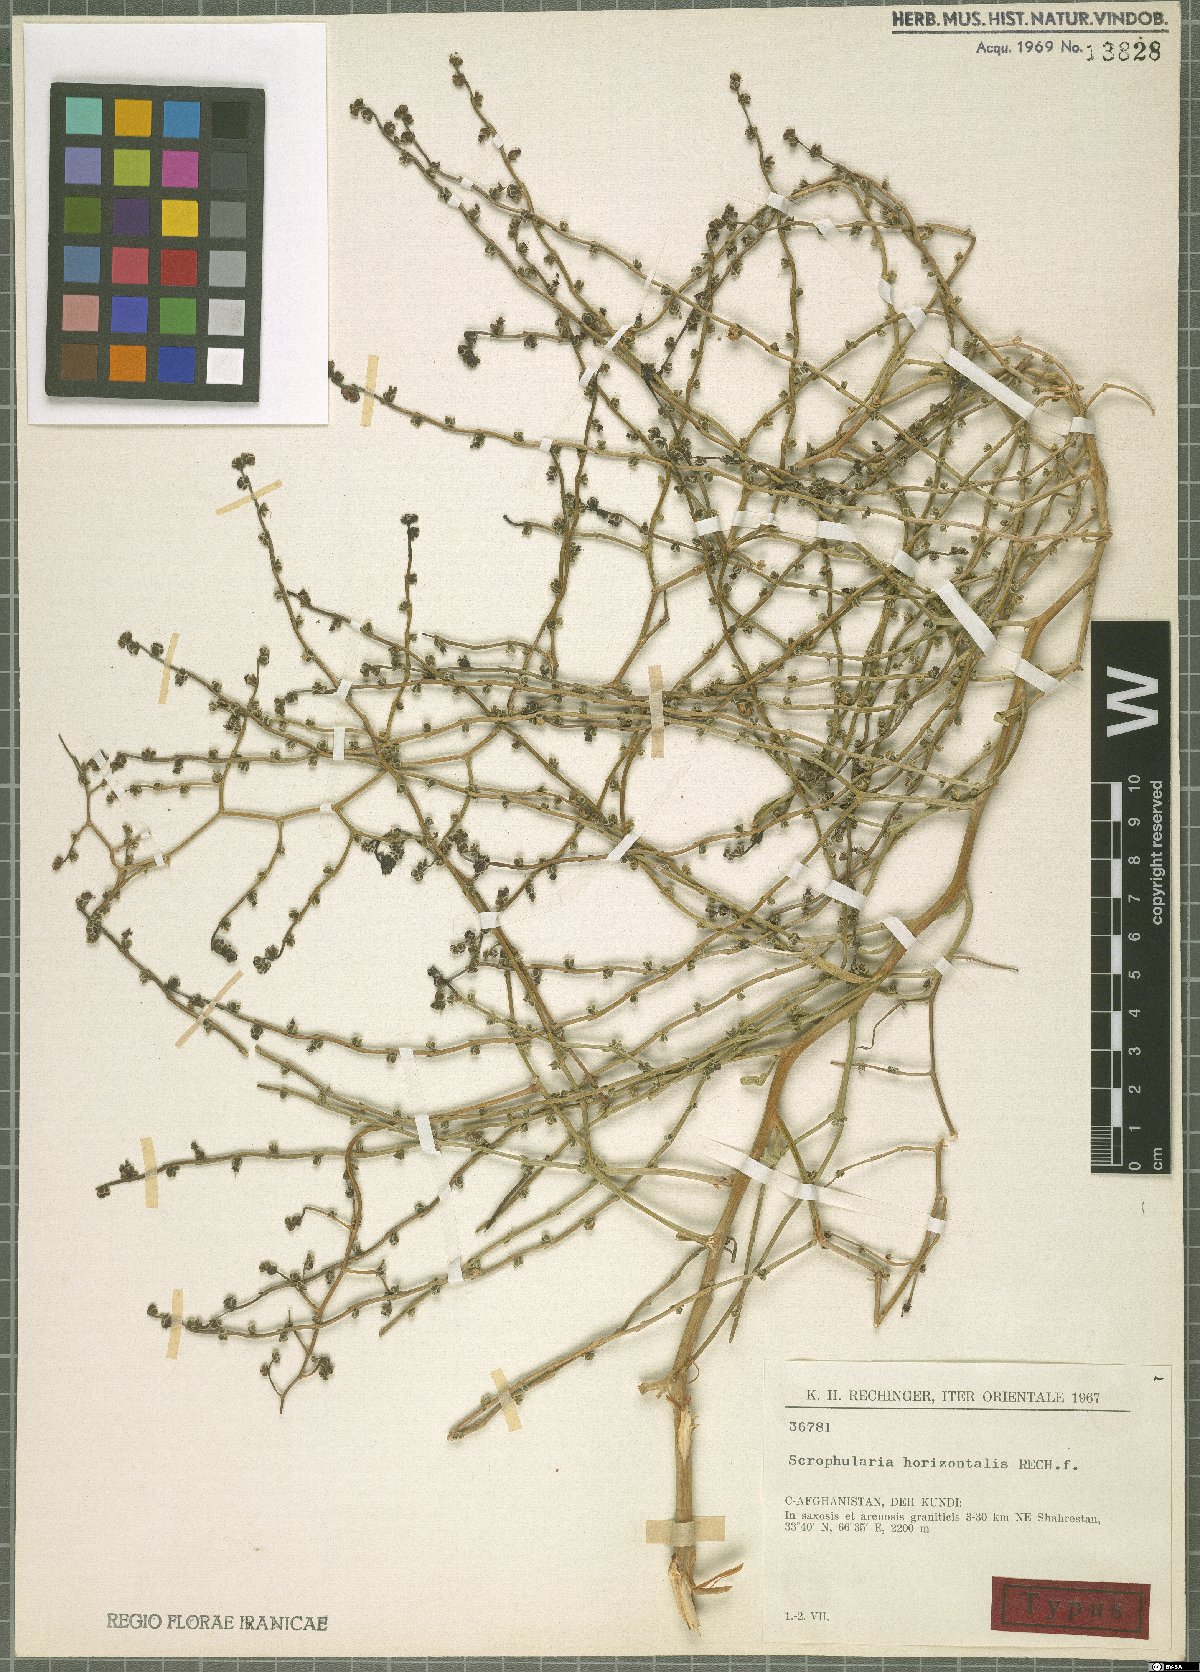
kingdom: Plantae
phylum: Tracheophyta
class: Magnoliopsida
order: Lamiales
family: Scrophulariaceae
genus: Scrophularia
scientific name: Scrophularia horizontalis
